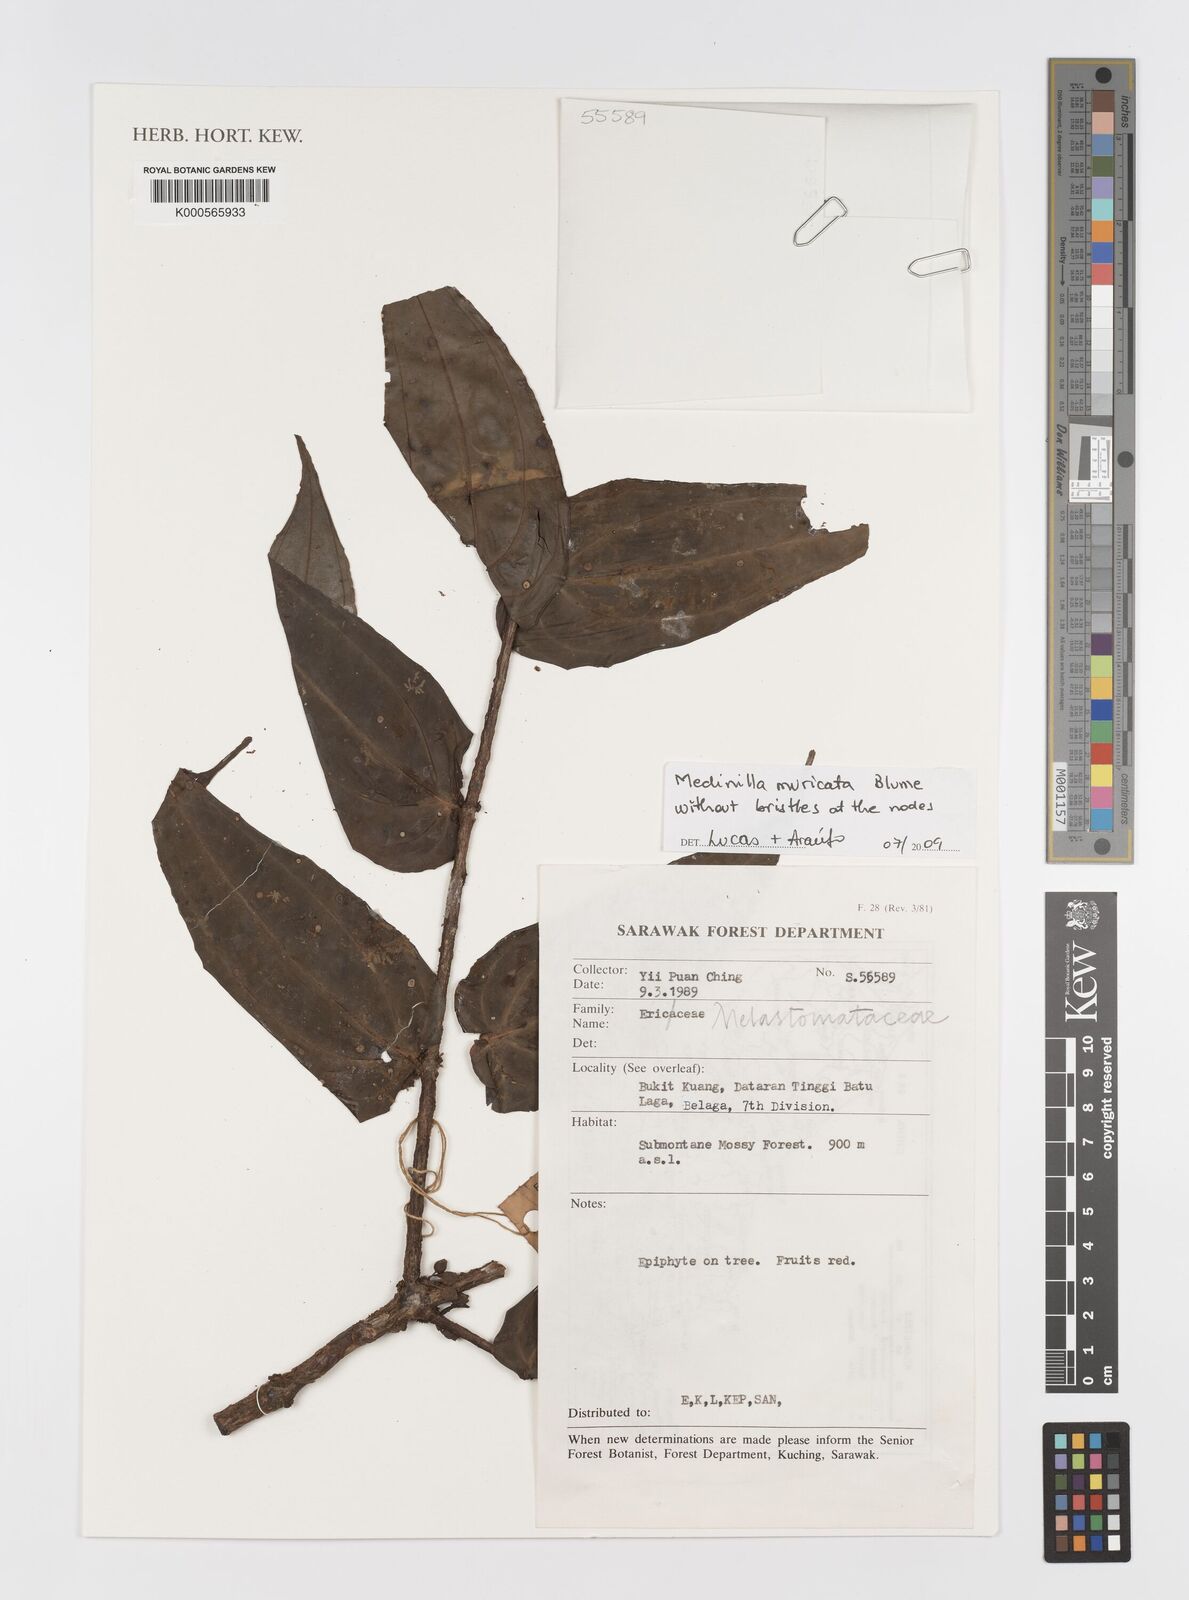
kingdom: Plantae
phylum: Tracheophyta
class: Magnoliopsida
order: Myrtales
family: Melastomataceae
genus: Medinilla
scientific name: Medinilla muricata
